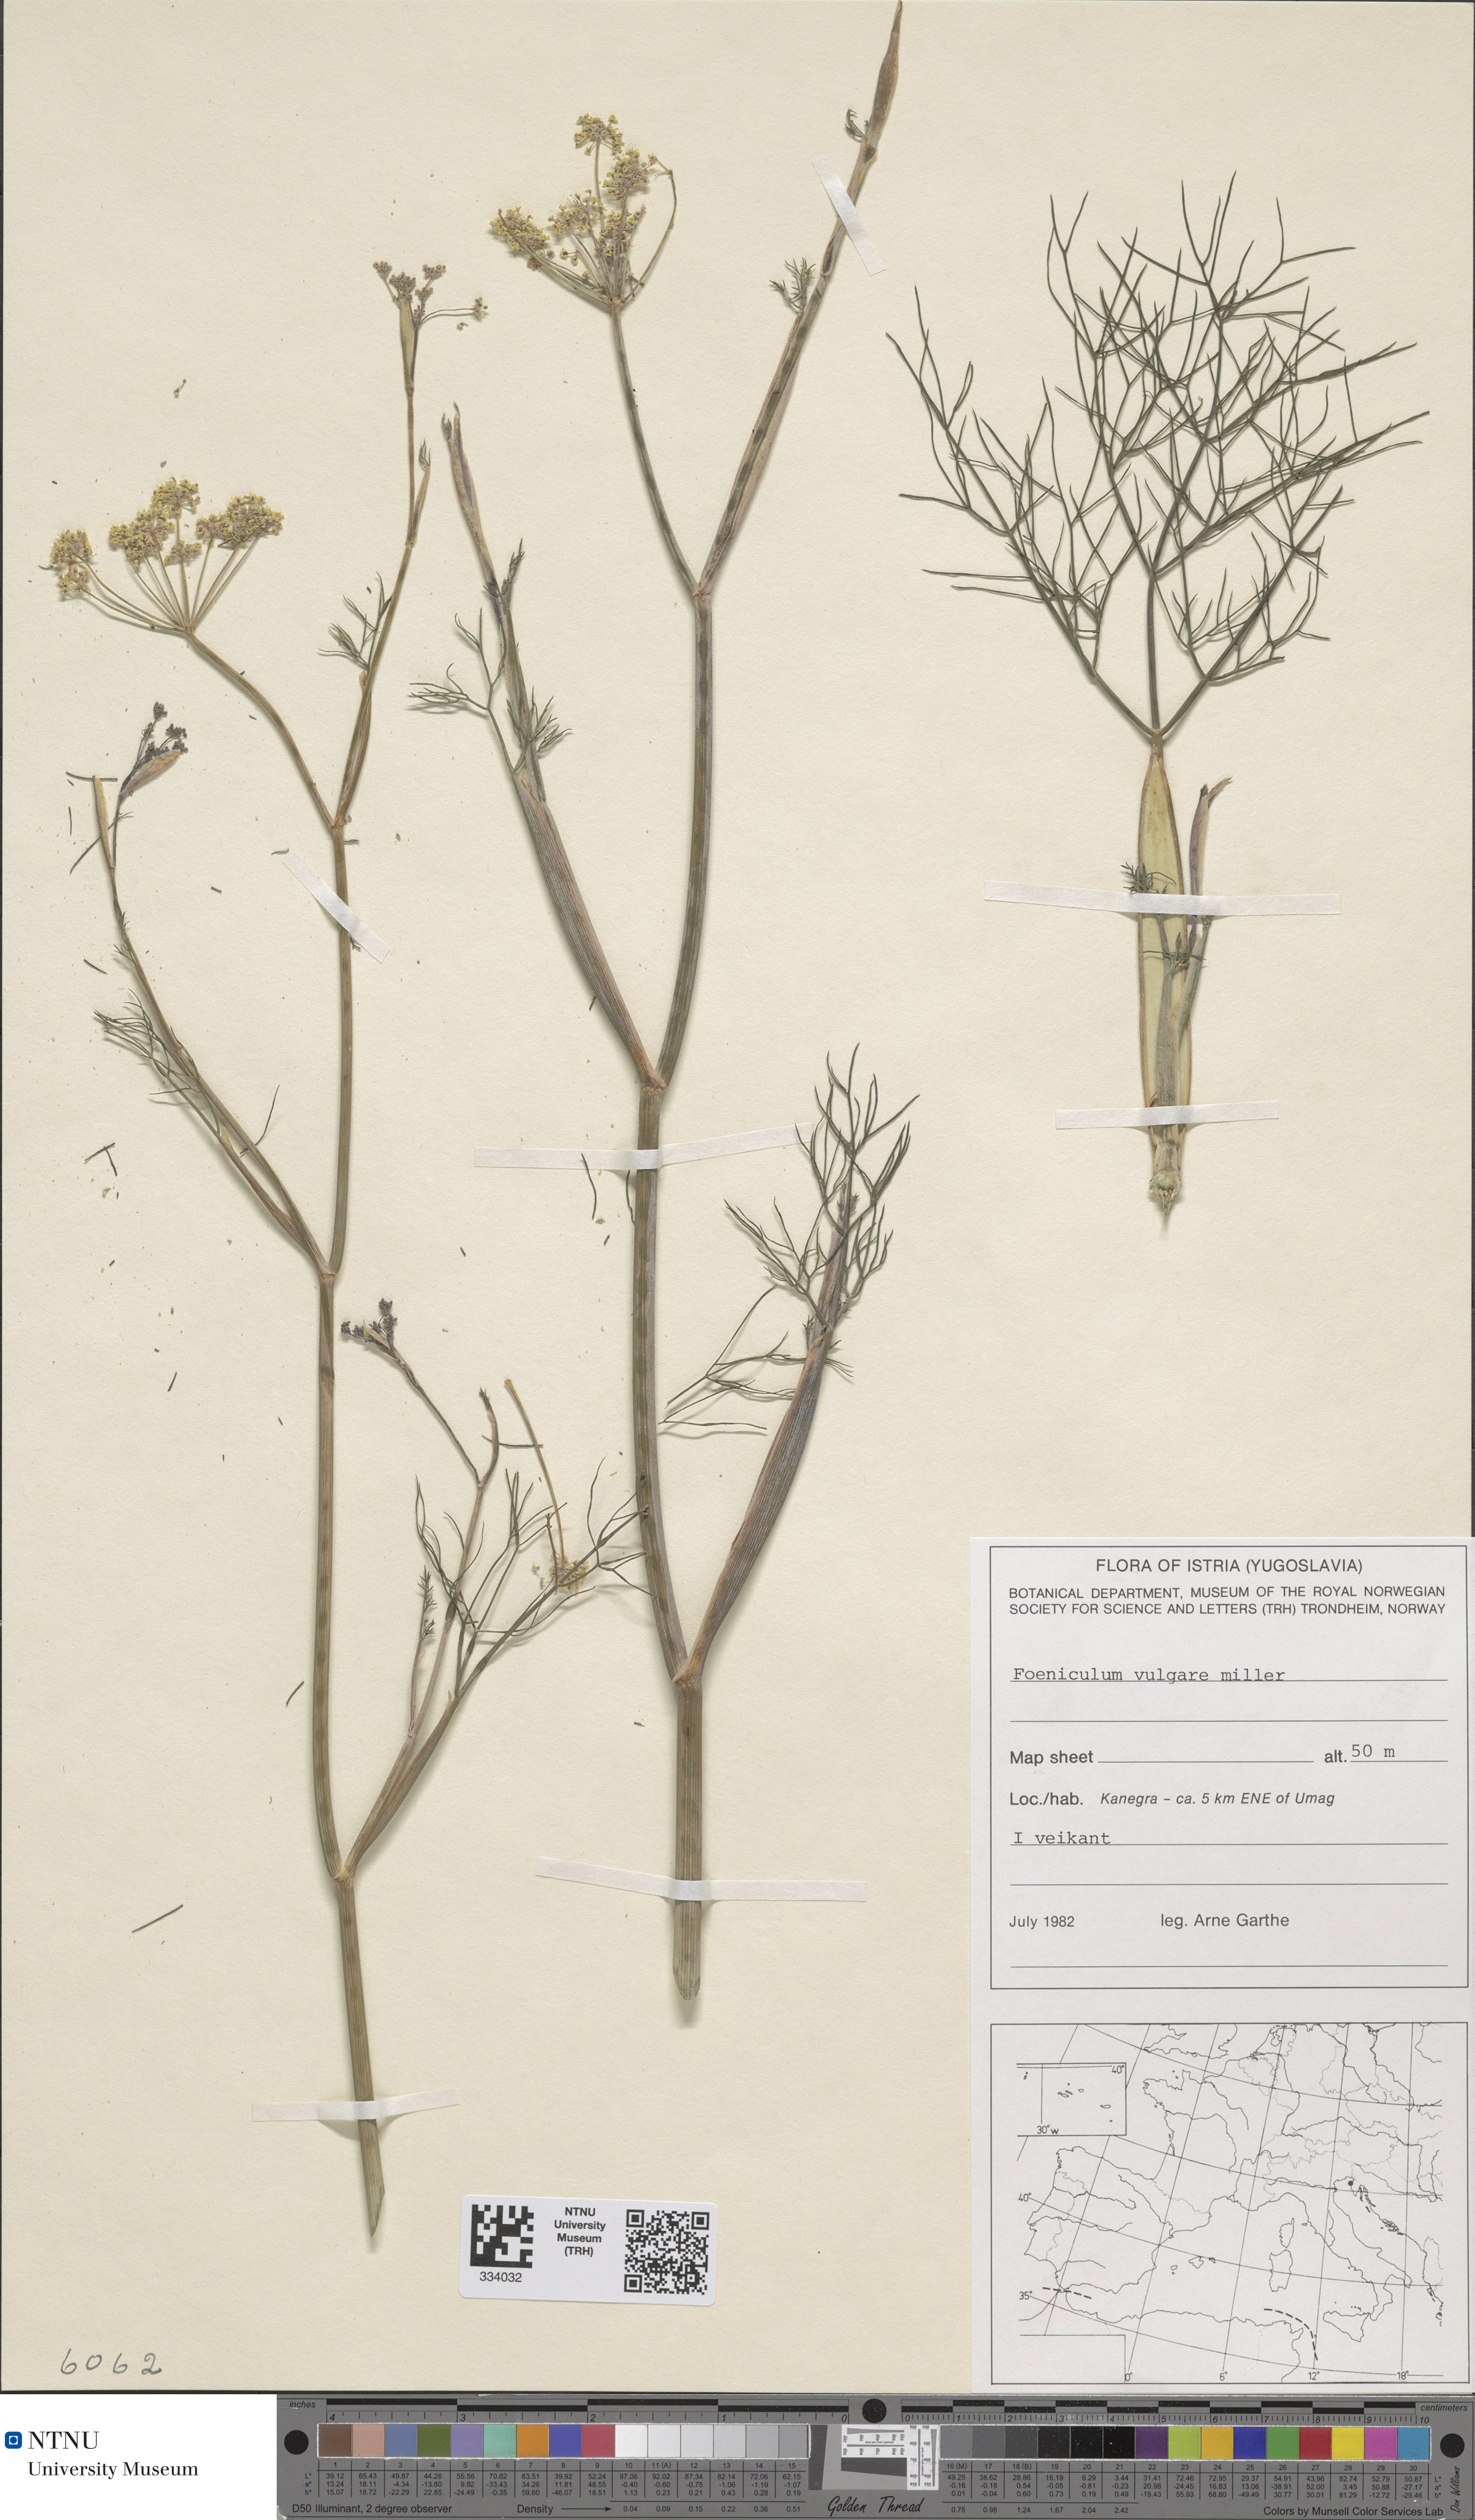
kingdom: Plantae
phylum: Tracheophyta
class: Magnoliopsida
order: Apiales
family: Apiaceae
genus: Foeniculum
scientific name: Foeniculum vulgare
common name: Fennel
